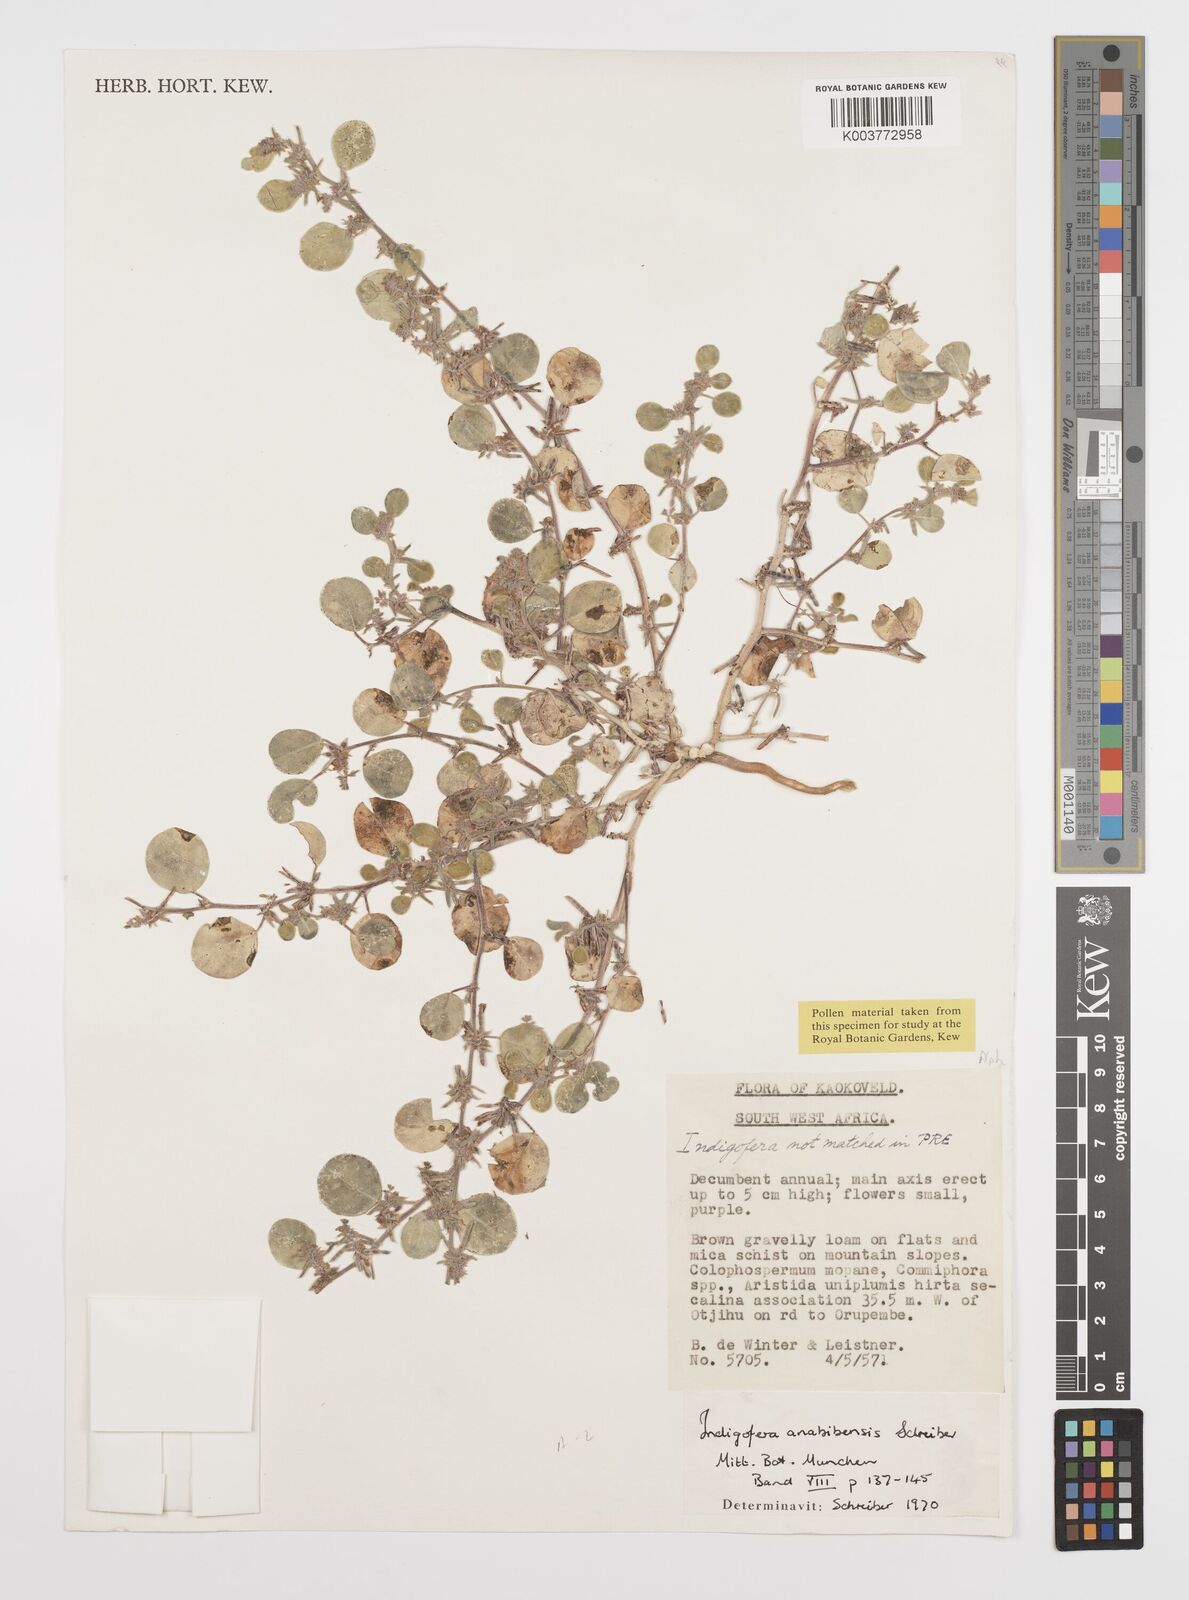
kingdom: Plantae
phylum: Tracheophyta
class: Magnoliopsida
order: Fabales
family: Fabaceae
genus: Indigofera
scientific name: Indigofera anabibensis
